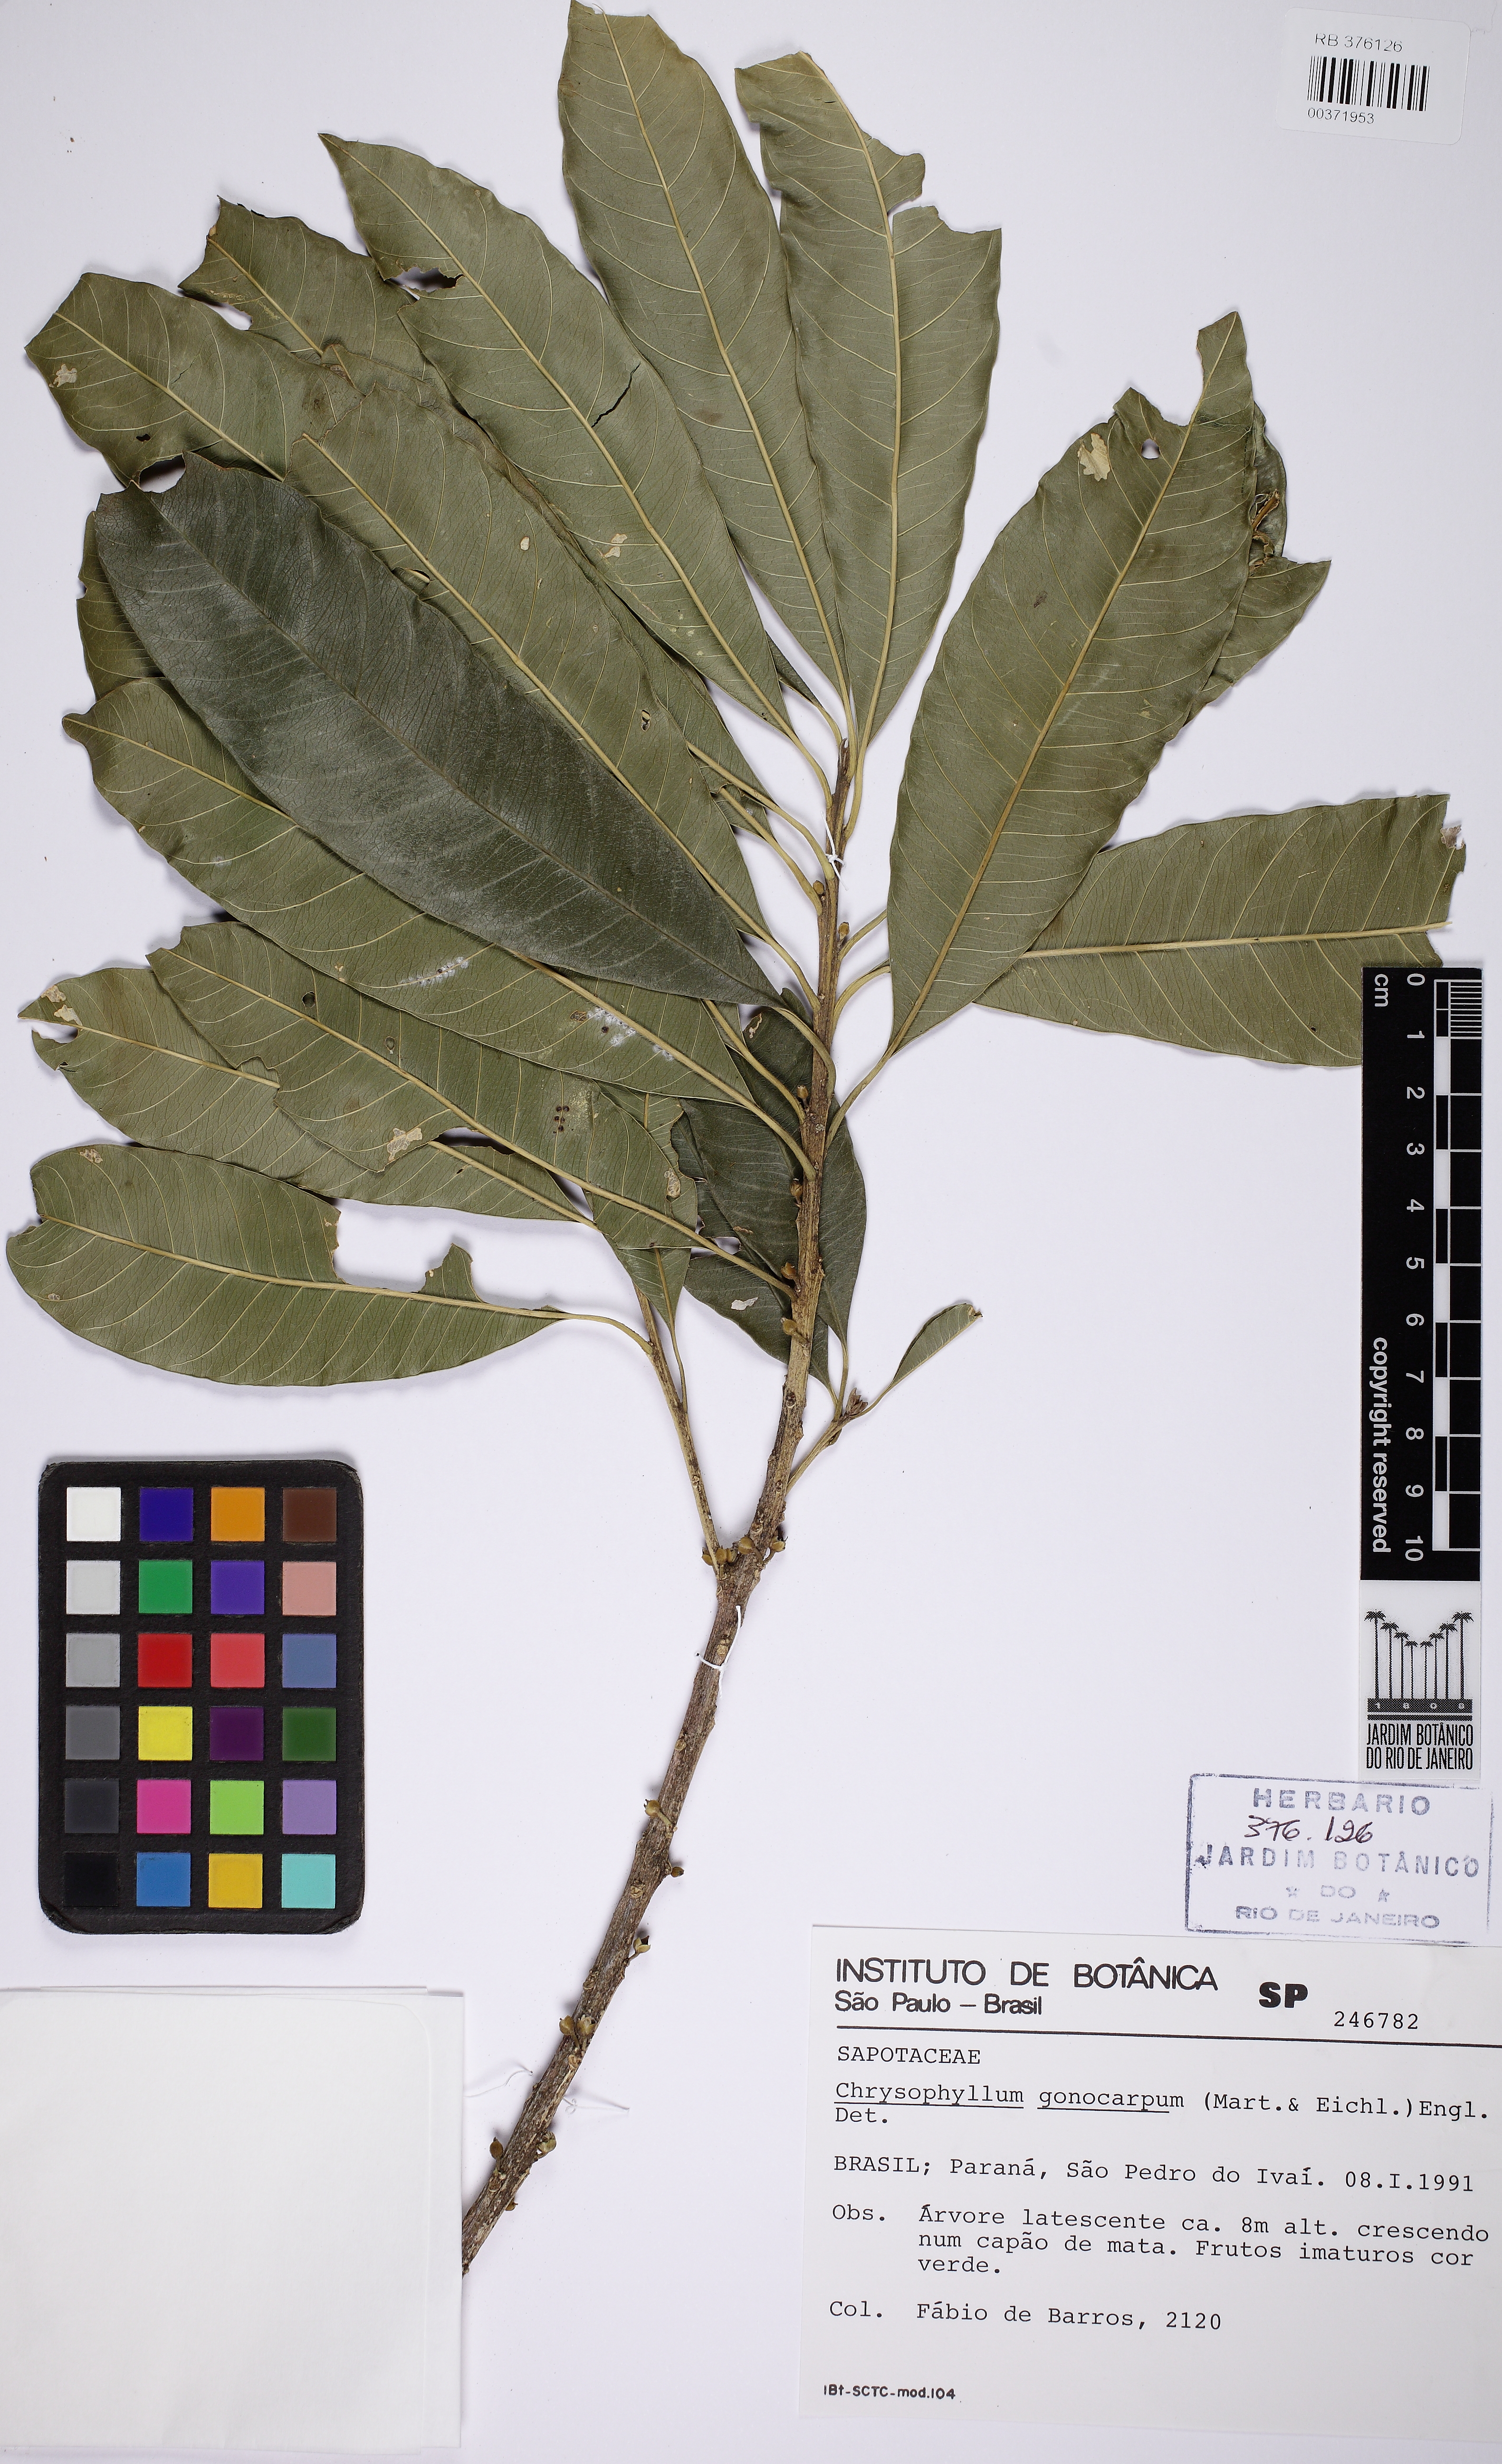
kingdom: Plantae
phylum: Tracheophyta
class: Magnoliopsida
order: Ericales
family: Sapotaceae
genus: Chrysophyllum
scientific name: Chrysophyllum gonocarpum
